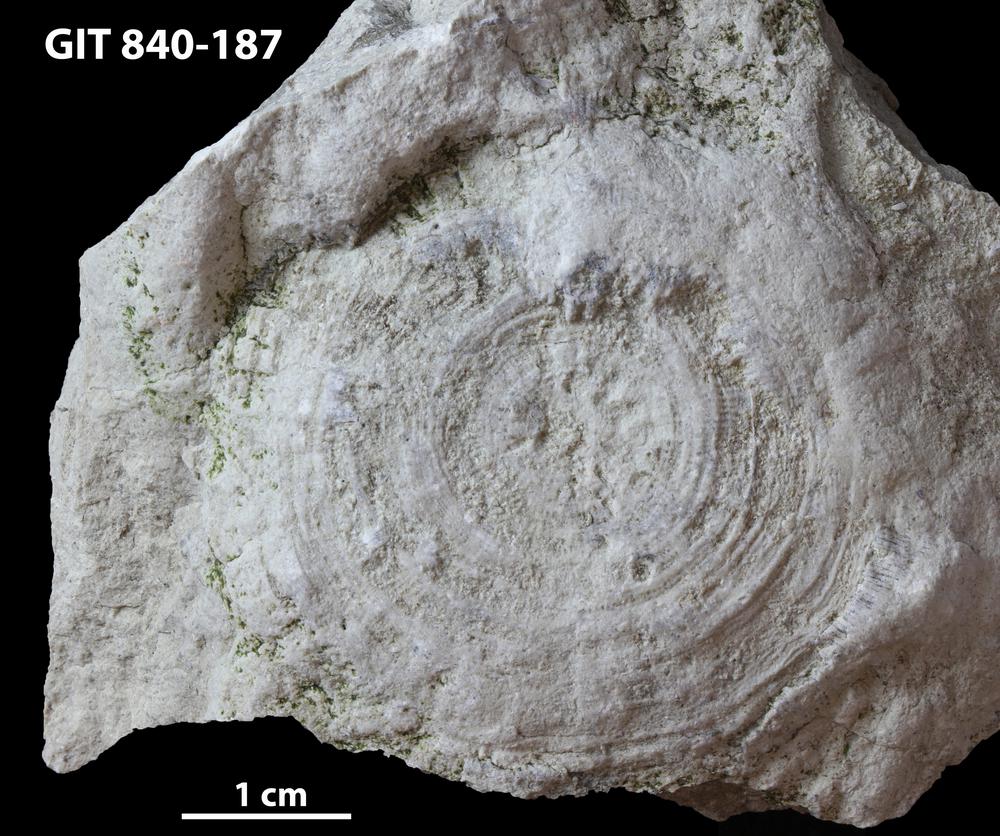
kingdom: Animalia
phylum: Bryozoa
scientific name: Bryozoa
